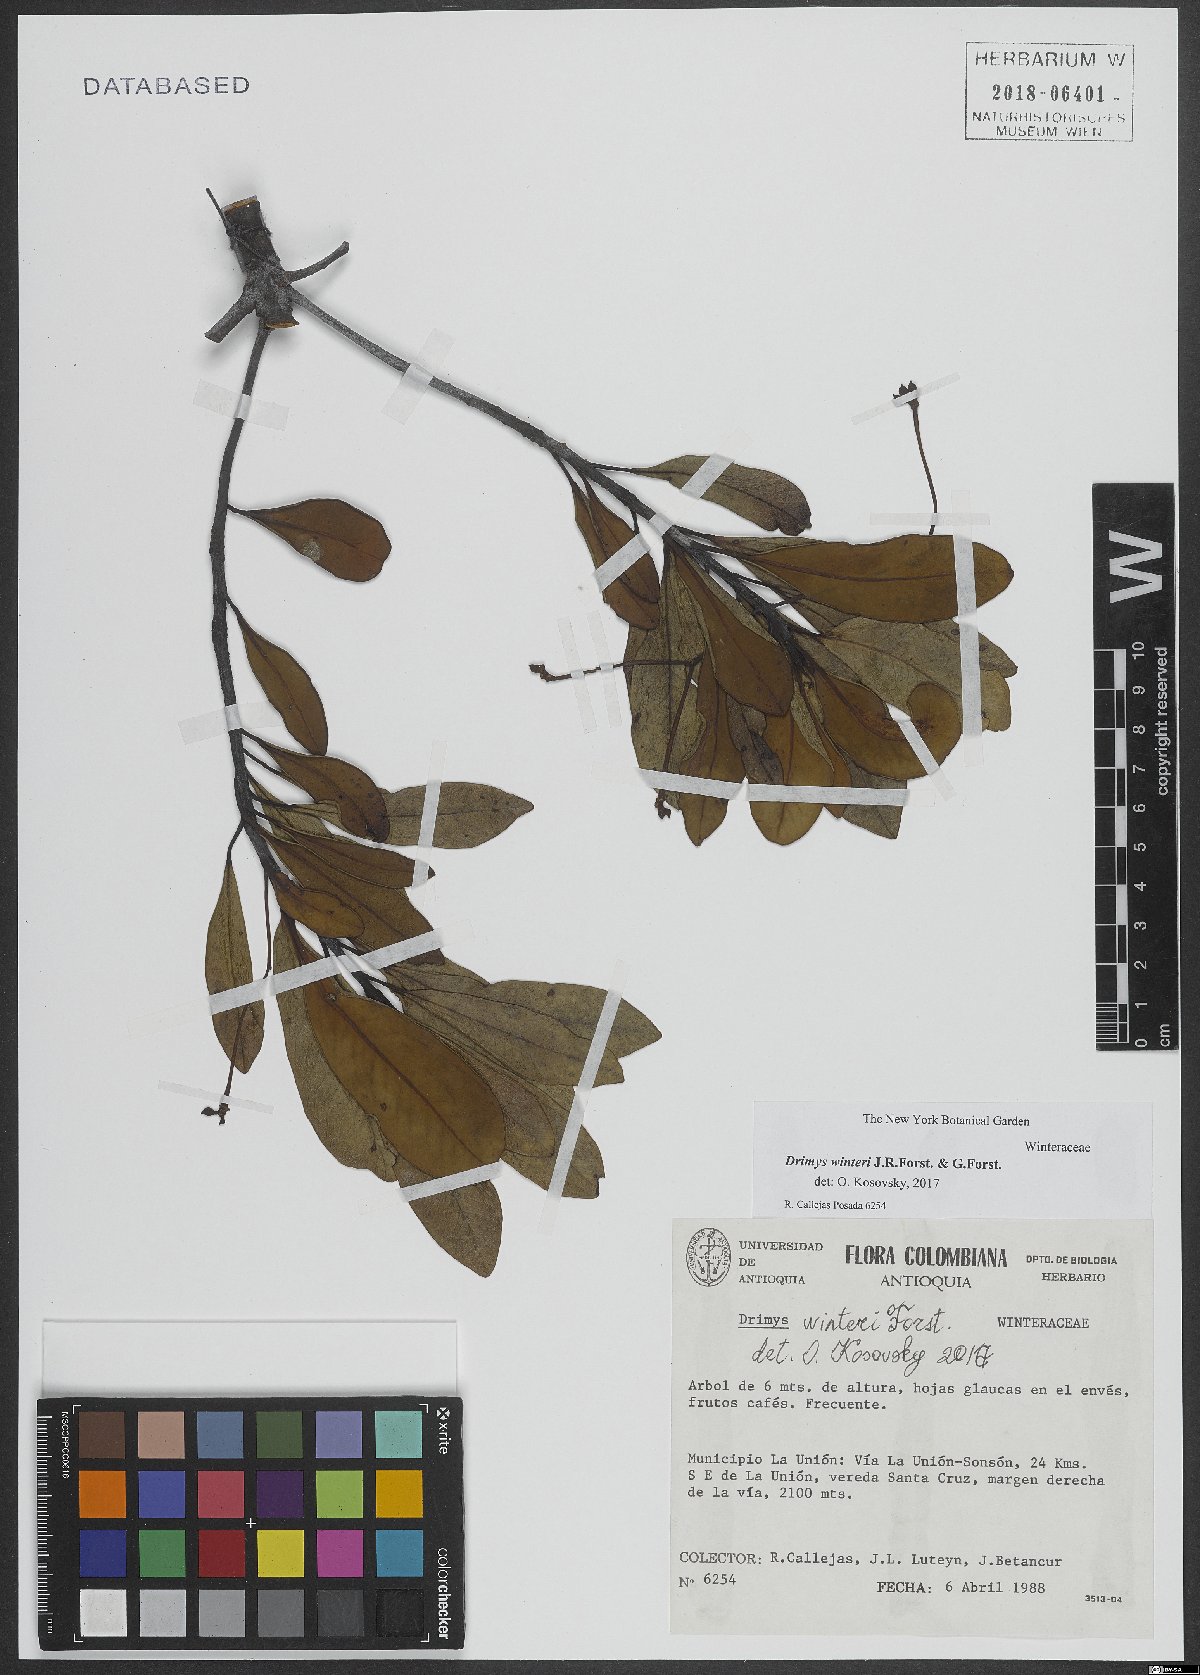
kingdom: Plantae
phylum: Tracheophyta
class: Magnoliopsida
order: Canellales
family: Winteraceae
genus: Drimys
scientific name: Drimys winteri
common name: Winter's-bark
